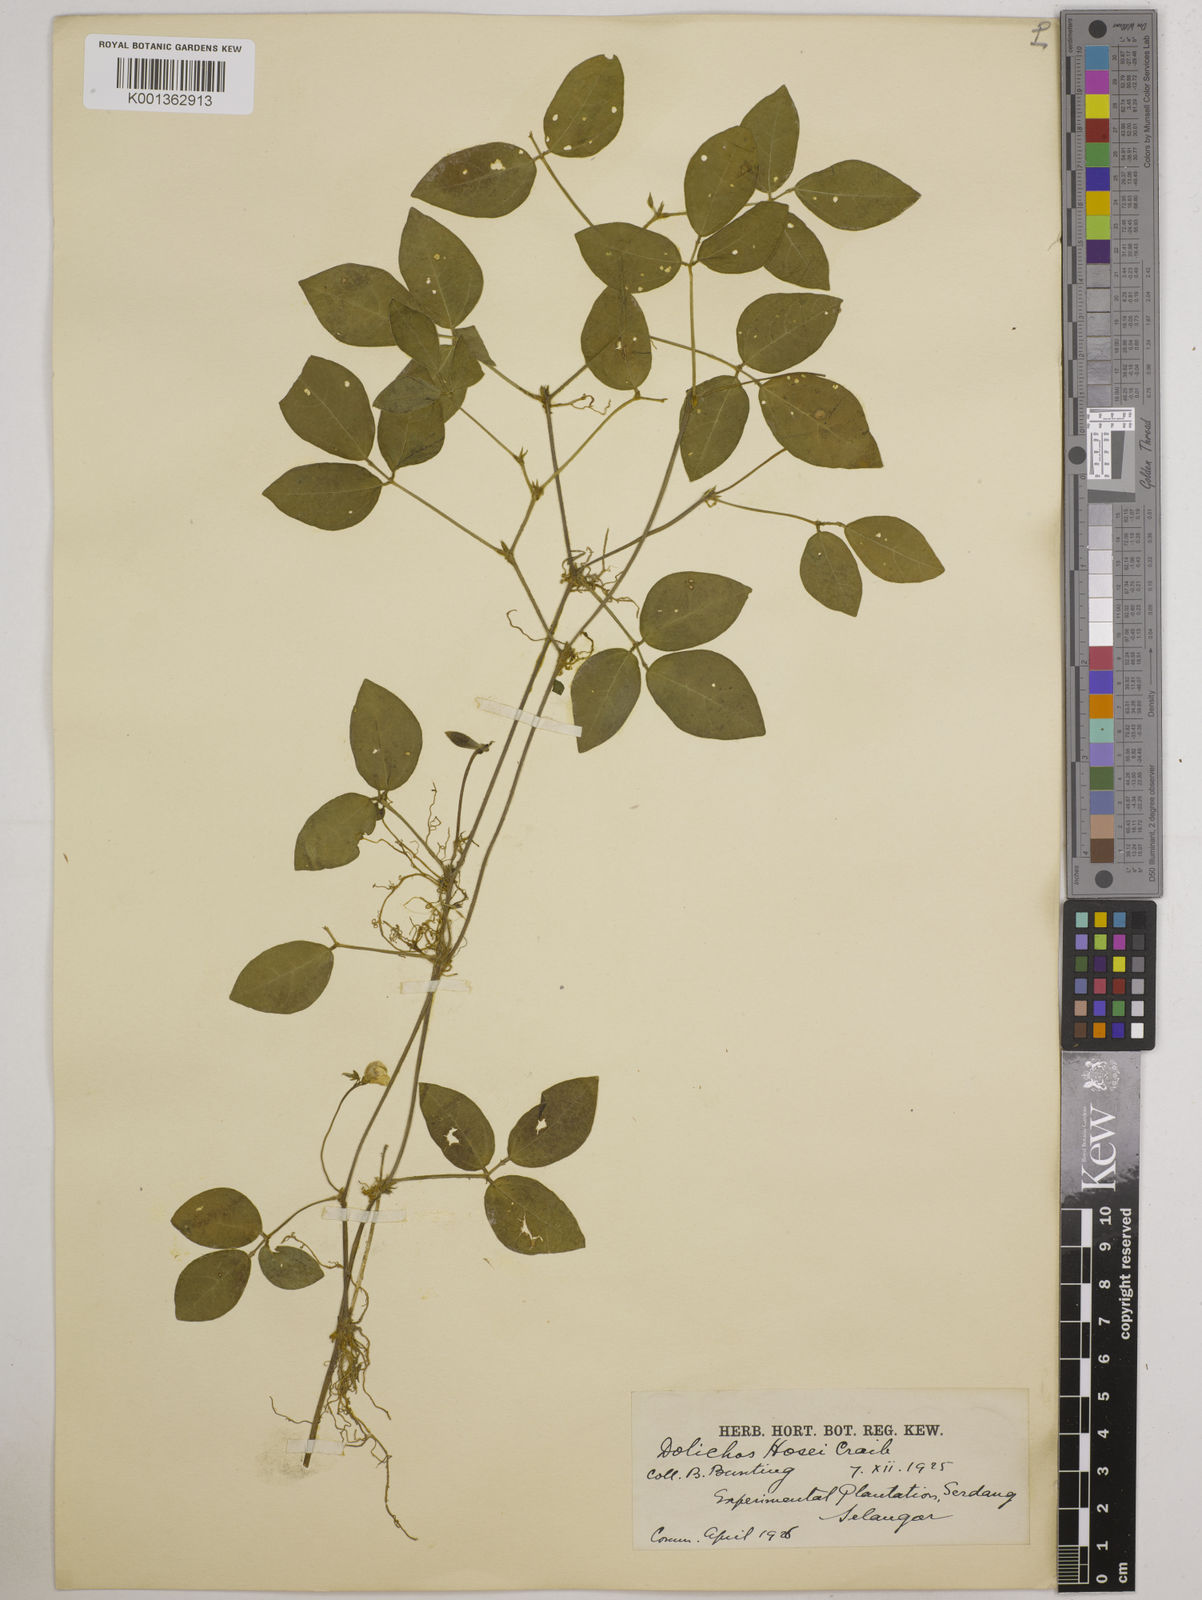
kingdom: Plantae
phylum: Tracheophyta
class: Magnoliopsida
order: Fabales
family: Fabaceae
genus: Vigna
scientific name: Vigna hosei
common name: Sarawak-bean
